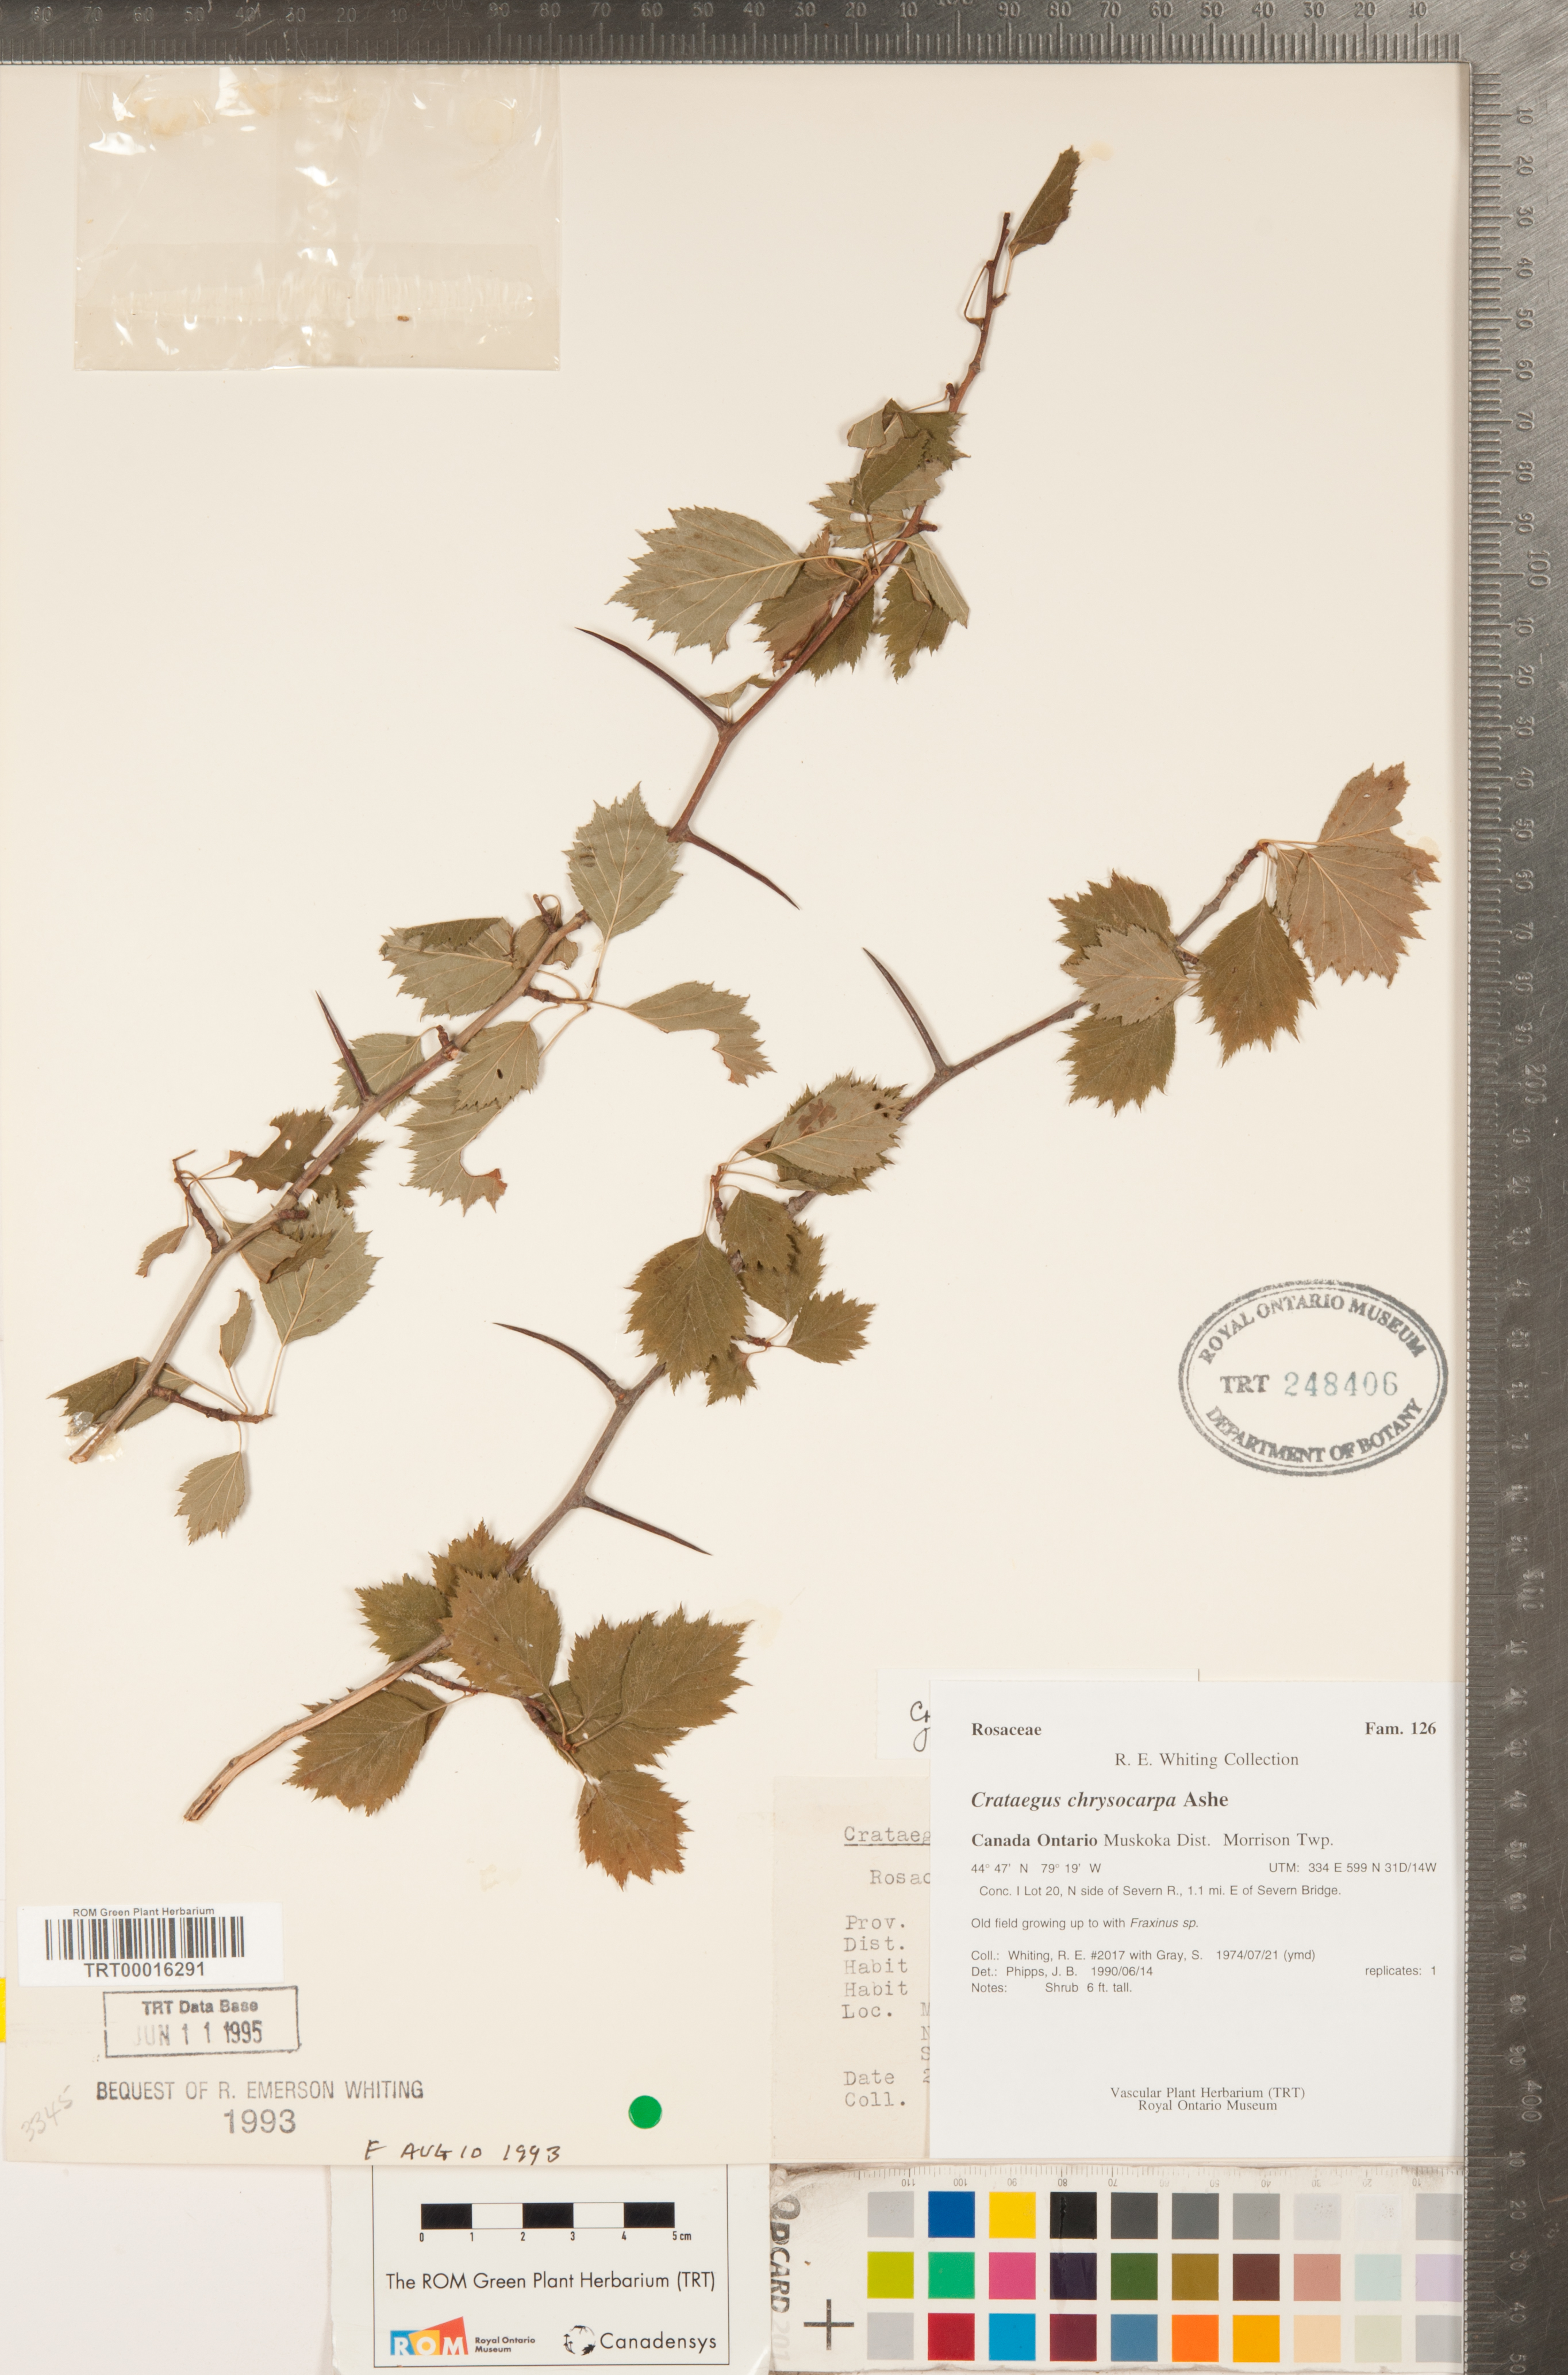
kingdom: Plantae
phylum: Tracheophyta
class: Magnoliopsida
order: Rosales
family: Rosaceae
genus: Crataegus
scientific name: Crataegus chrysocarpa
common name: Fire-berry hawthorn
